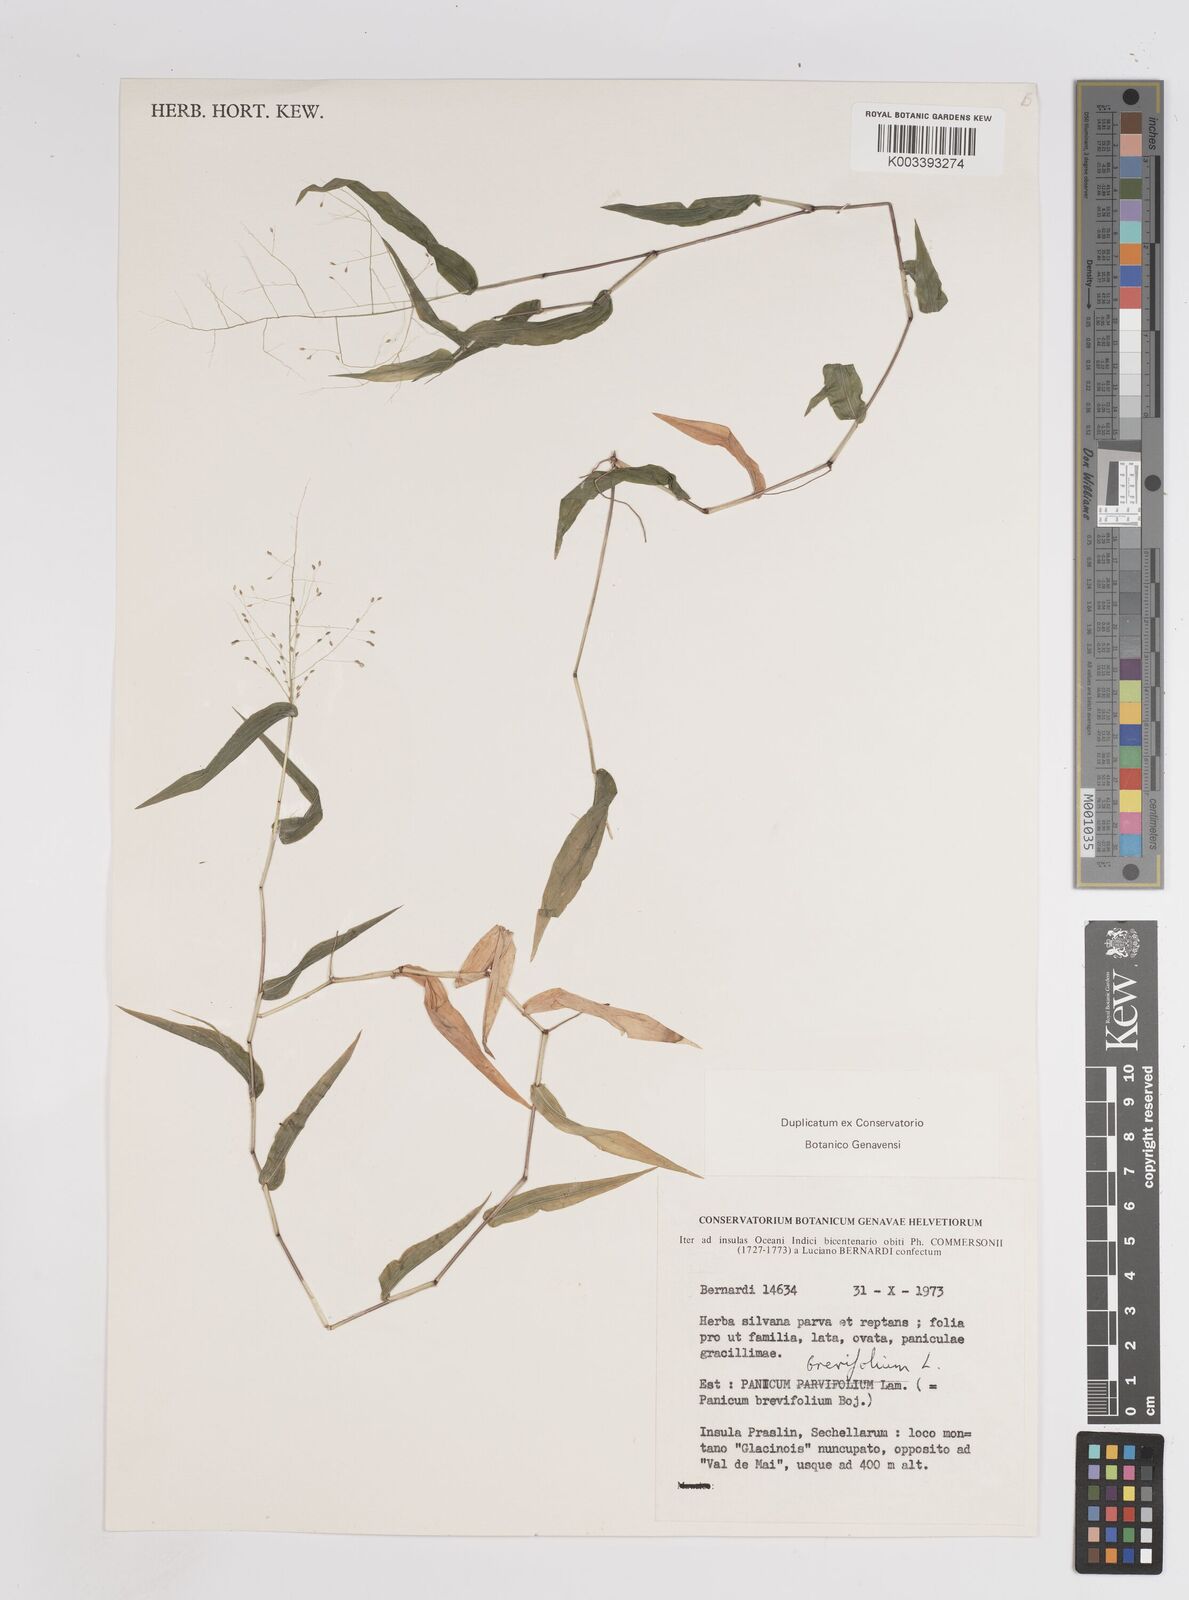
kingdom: Plantae
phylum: Tracheophyta
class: Liliopsida
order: Poales
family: Poaceae
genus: Panicum
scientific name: Panicum brevifolium
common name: Shortleaf panic grass
